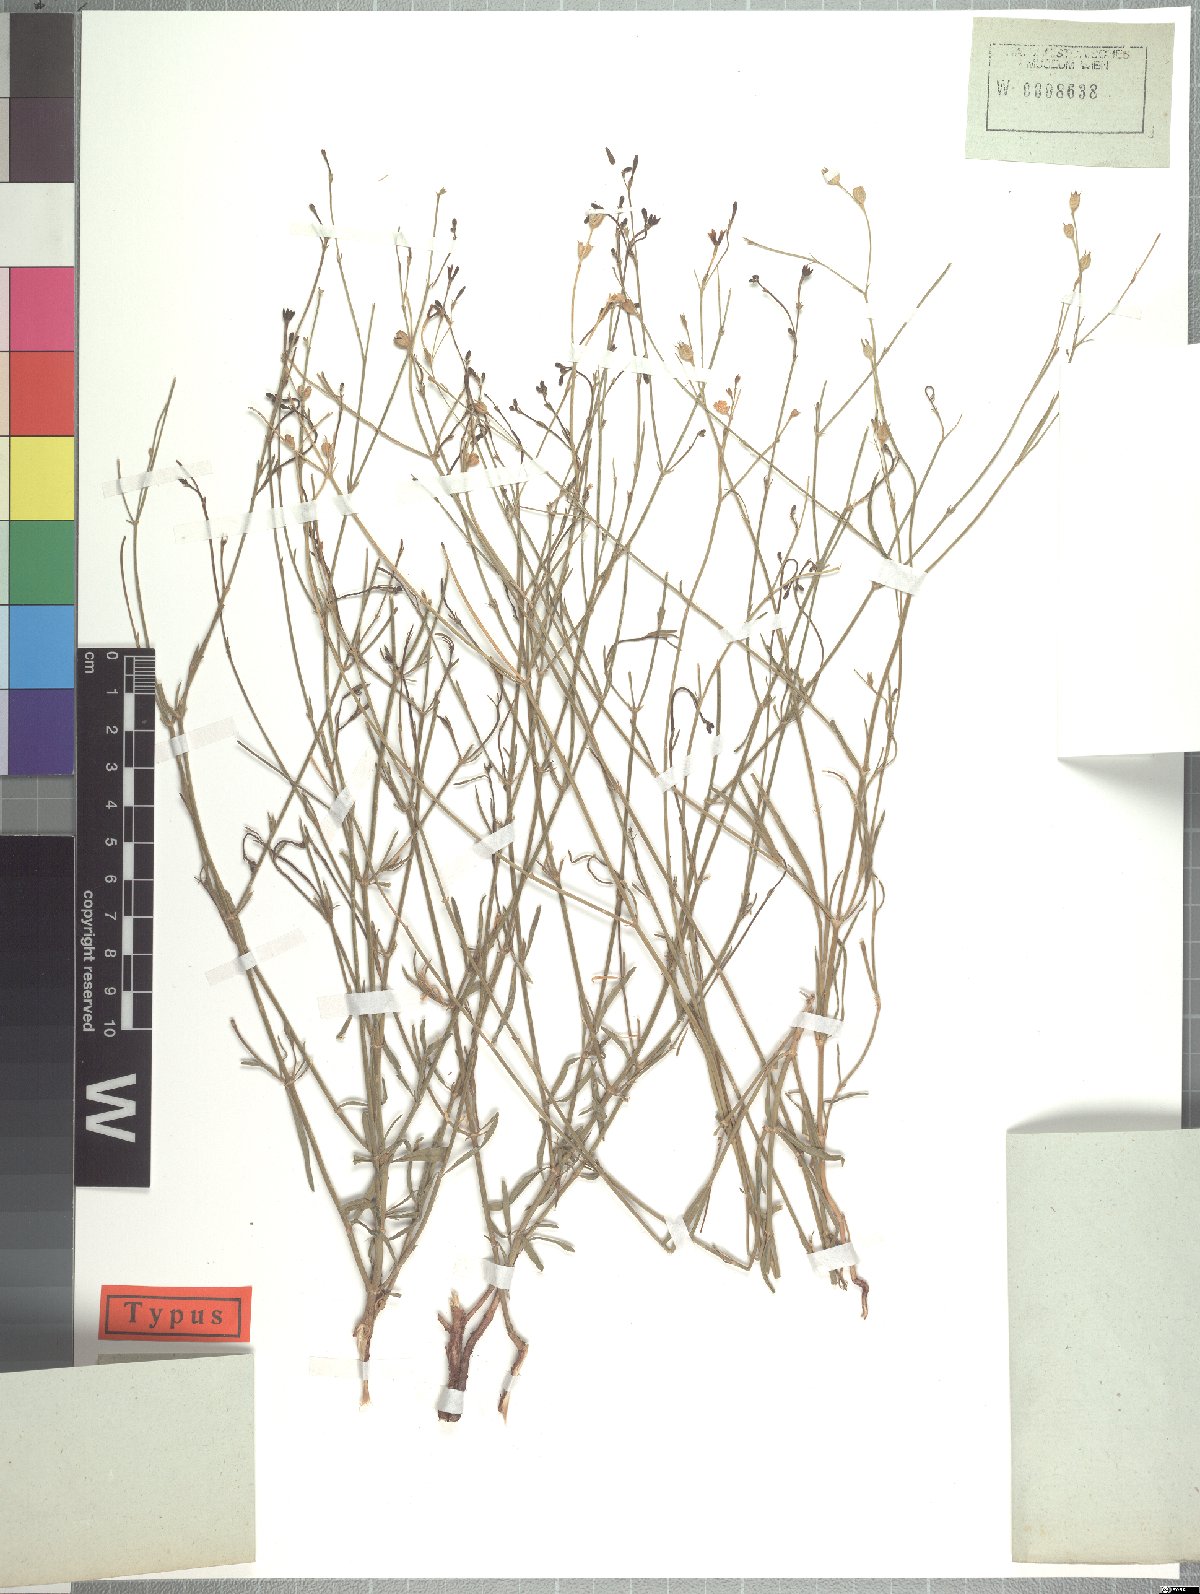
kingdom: Plantae
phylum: Tracheophyta
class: Magnoliopsida
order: Gentianales
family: Rubiaceae
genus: Kohautia
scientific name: Kohautia caespitosa
